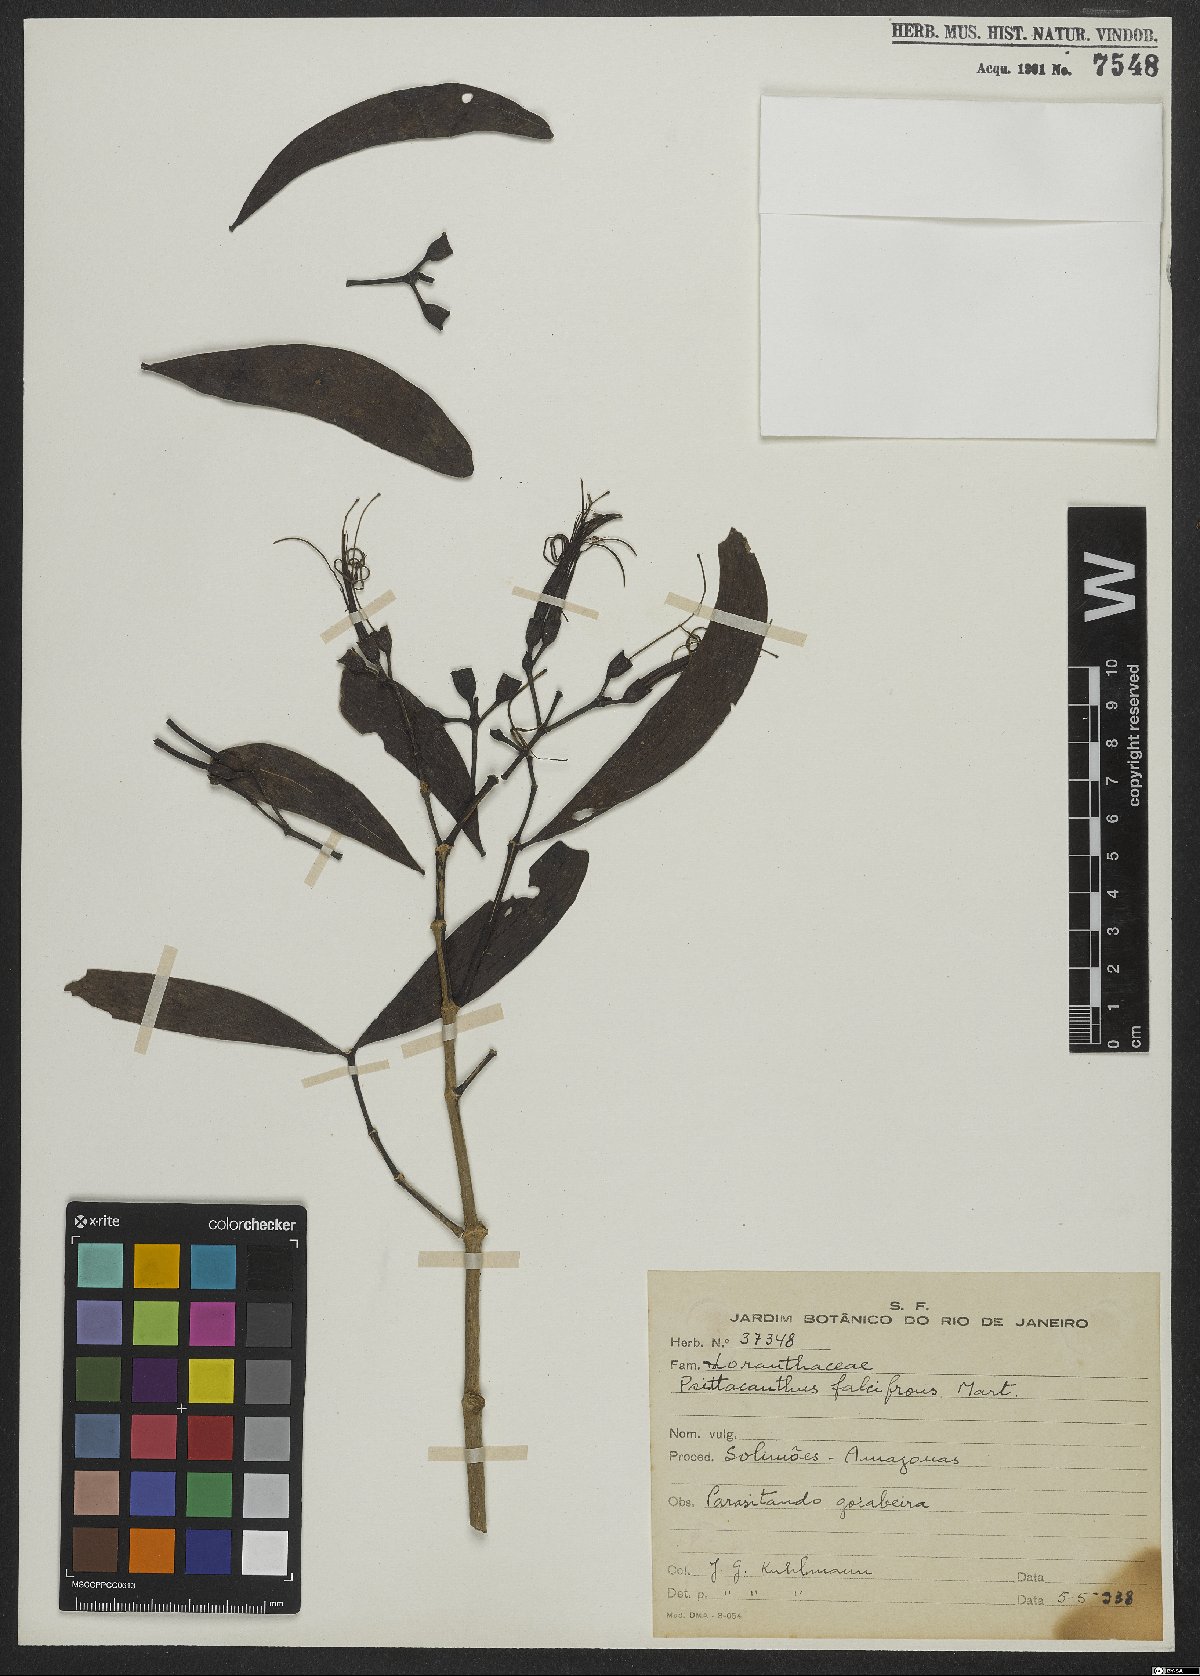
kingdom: Plantae
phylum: Tracheophyta
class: Magnoliopsida
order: Santalales
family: Loranthaceae
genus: Psittacanthus
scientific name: Psittacanthus cucullaris
